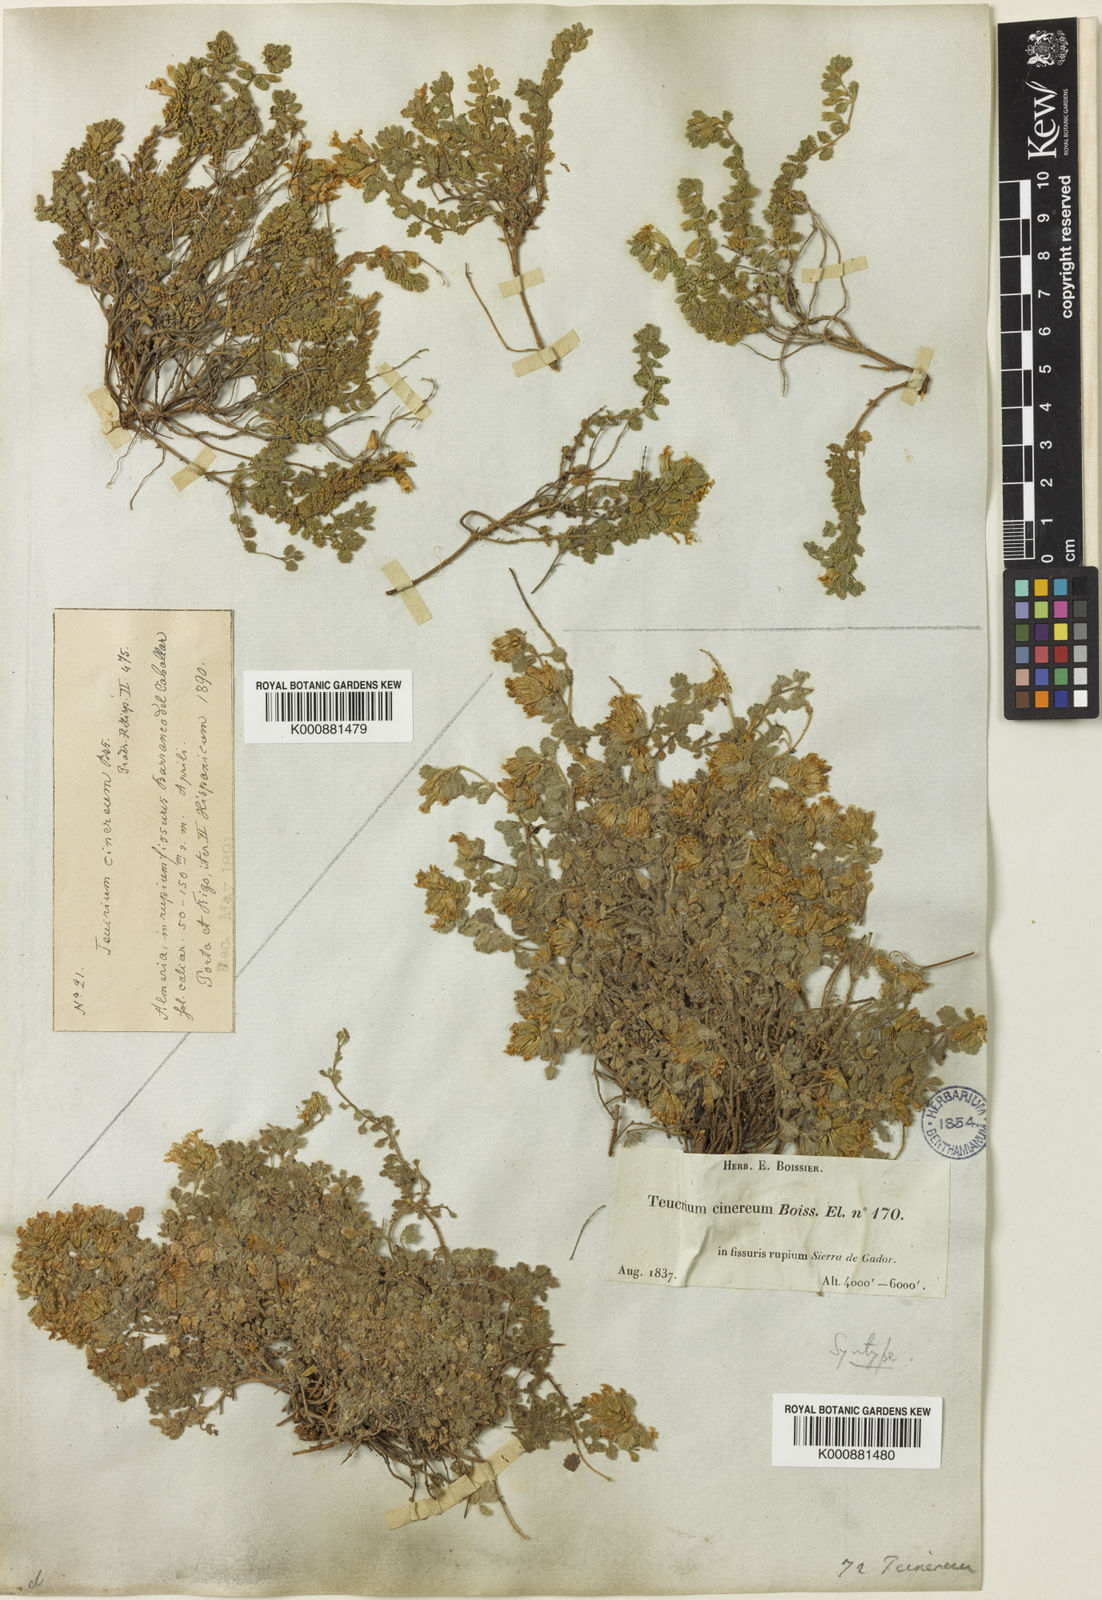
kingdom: Plantae
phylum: Tracheophyta
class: Magnoliopsida
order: Lamiales
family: Lamiaceae
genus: Teucrium
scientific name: Teucrium rotundifolium
